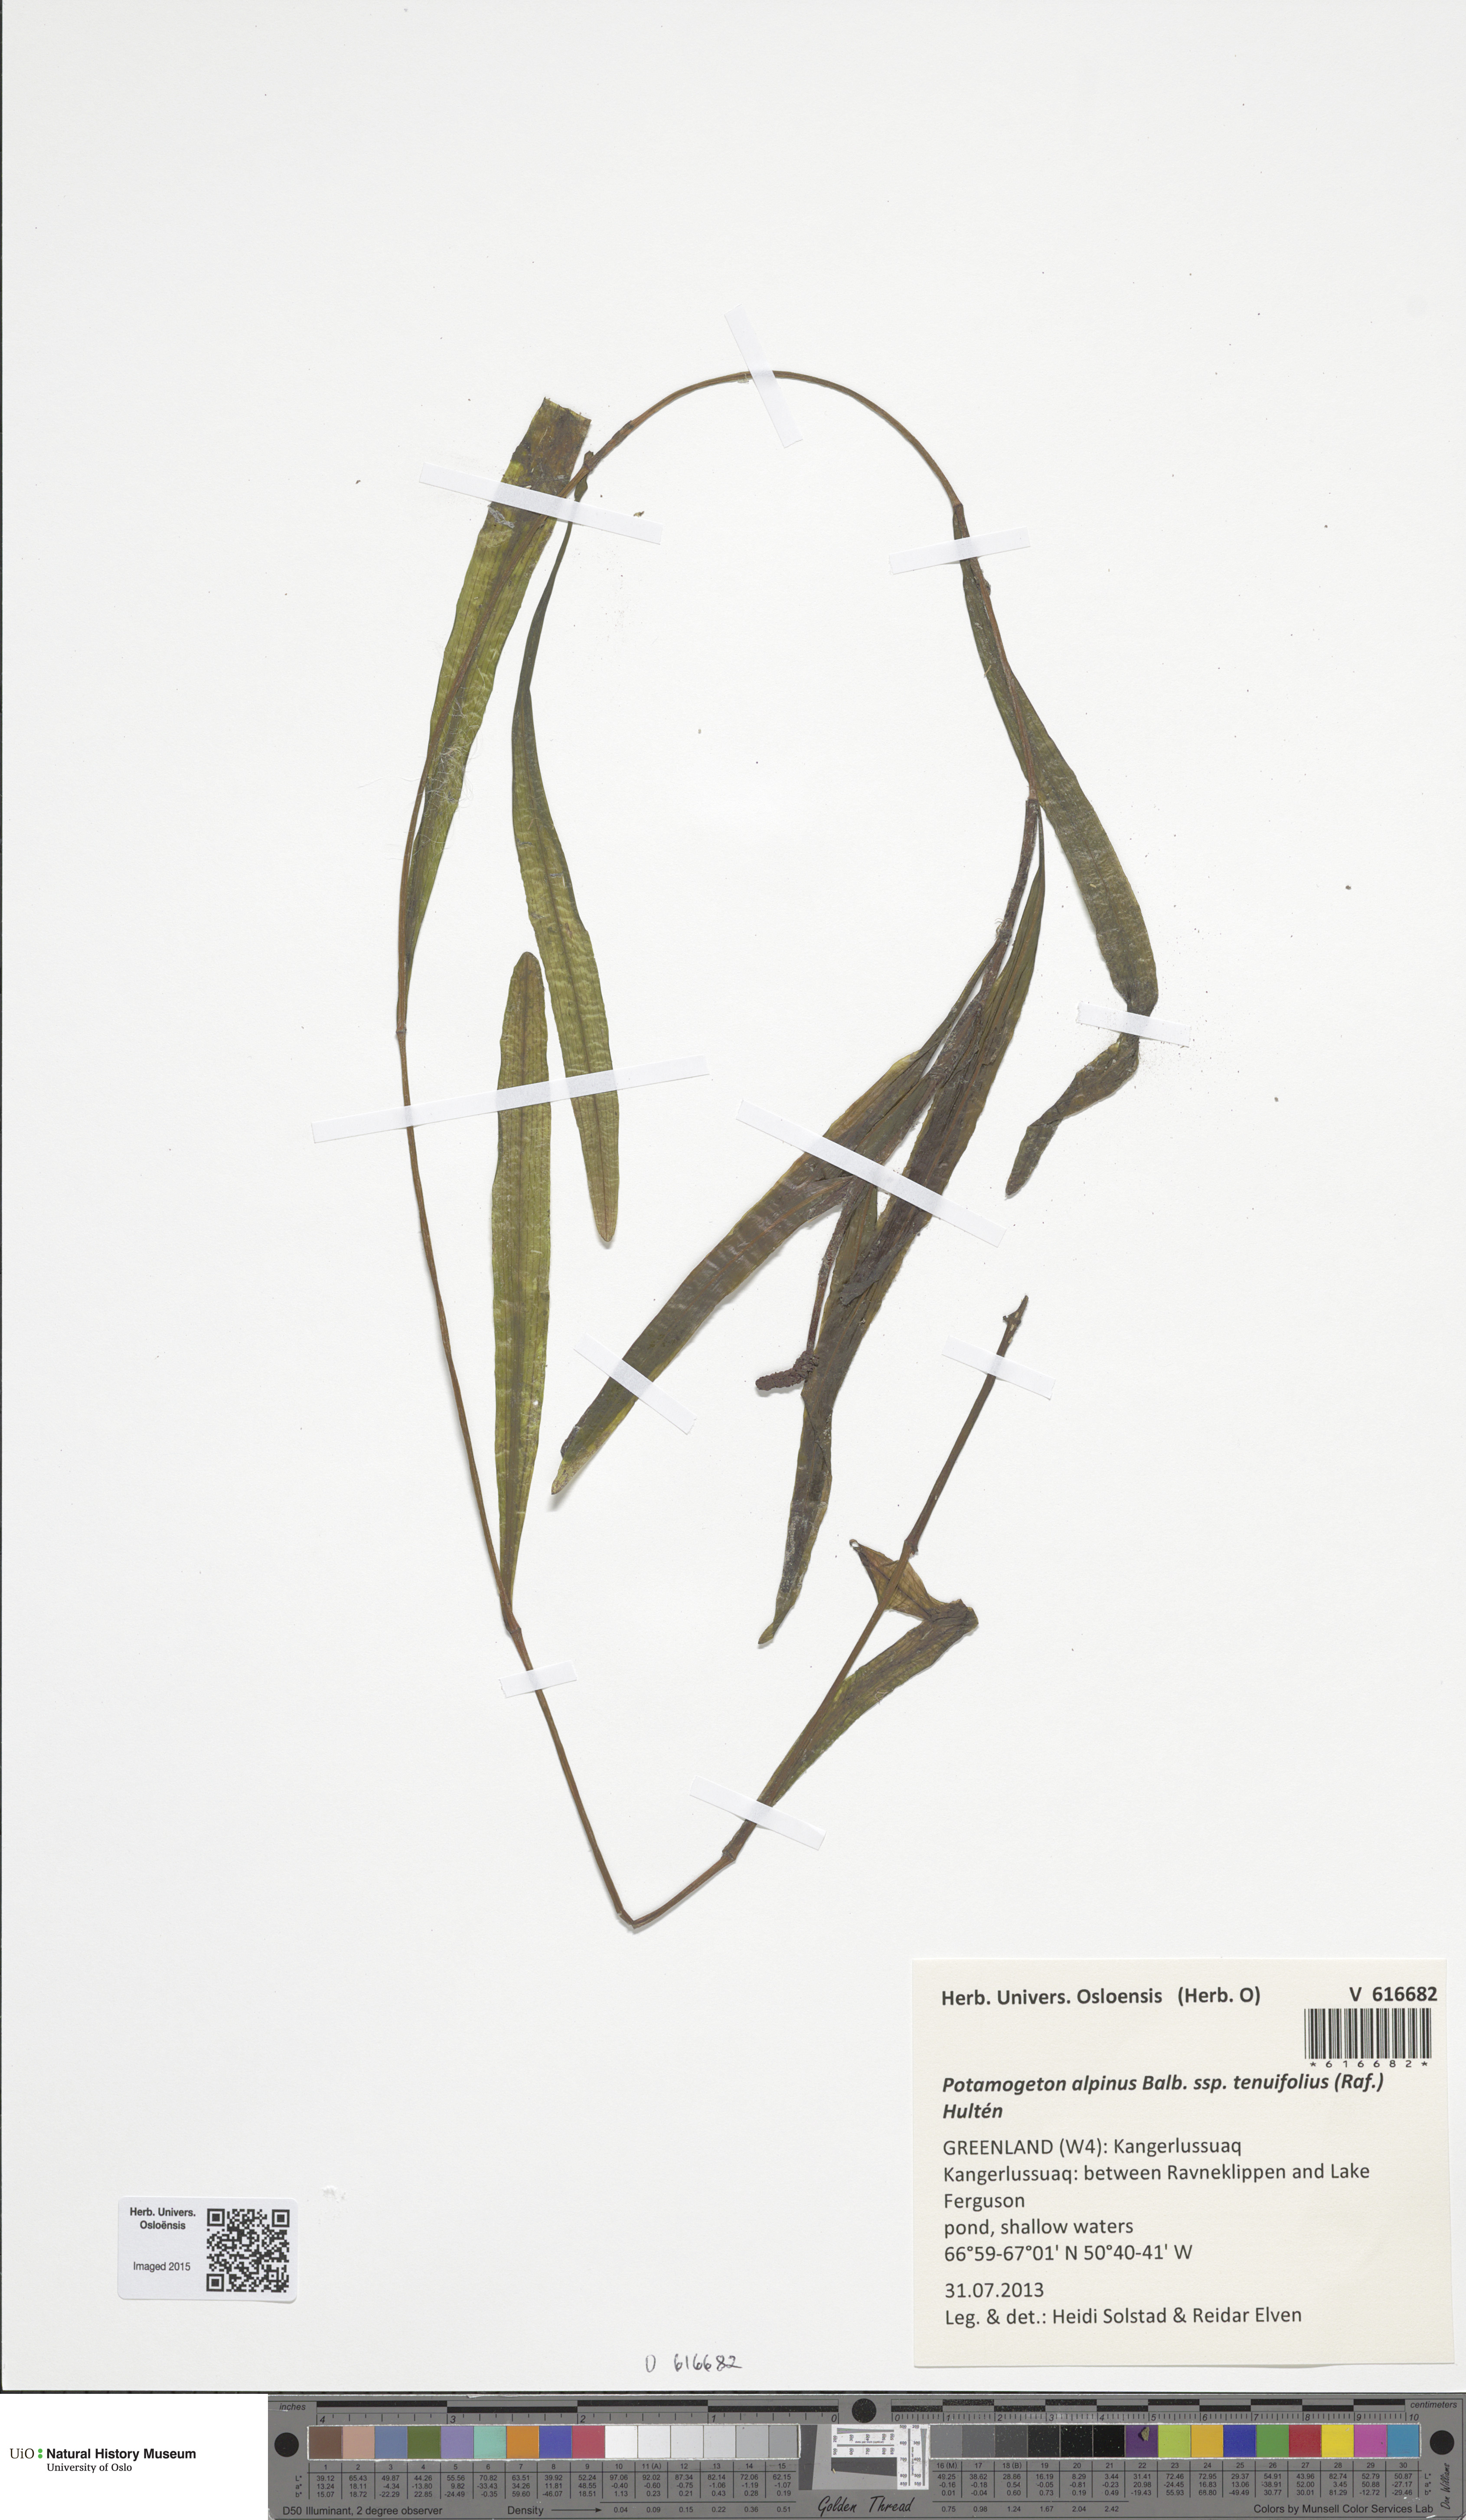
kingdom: Plantae
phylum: Tracheophyta
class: Liliopsida
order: Alismatales
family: Potamogetonaceae
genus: Potamogeton
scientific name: Potamogeton alpinus
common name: Red pondweed
